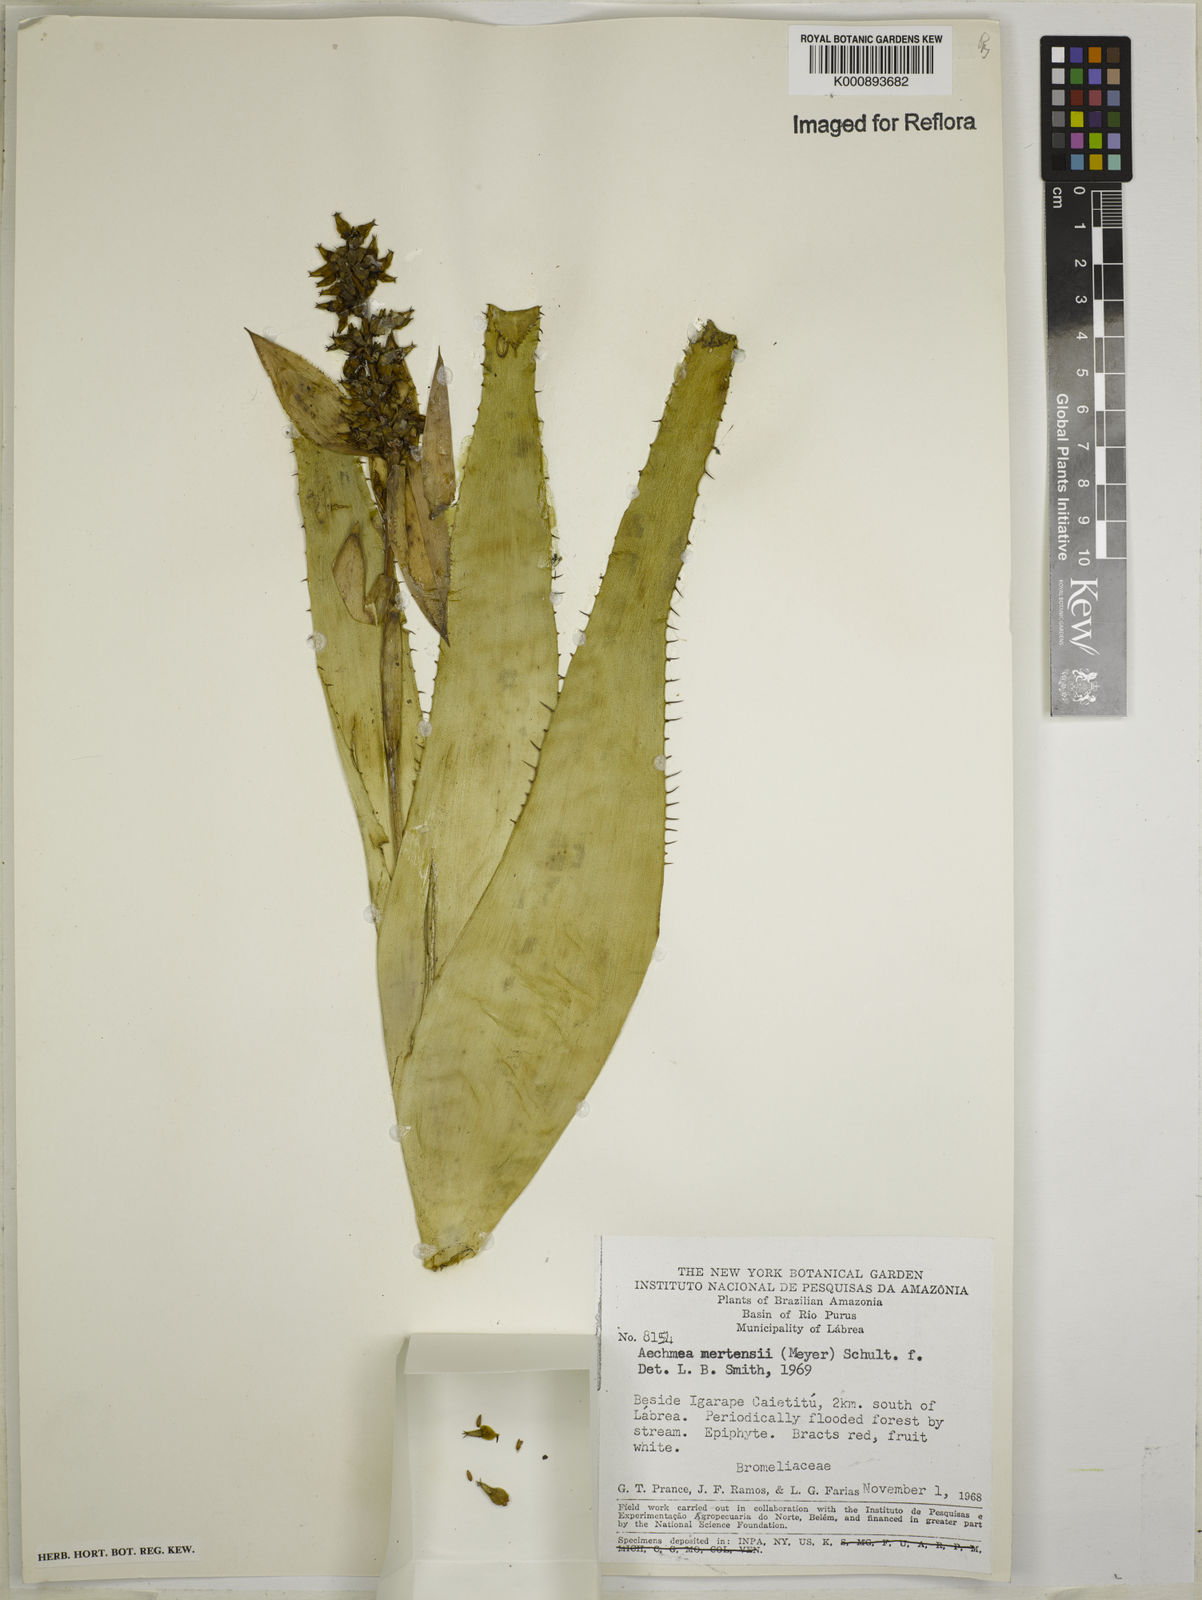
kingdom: Plantae
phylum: Tracheophyta
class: Liliopsida
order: Poales
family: Bromeliaceae
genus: Aechmea
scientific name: Aechmea mertensii
